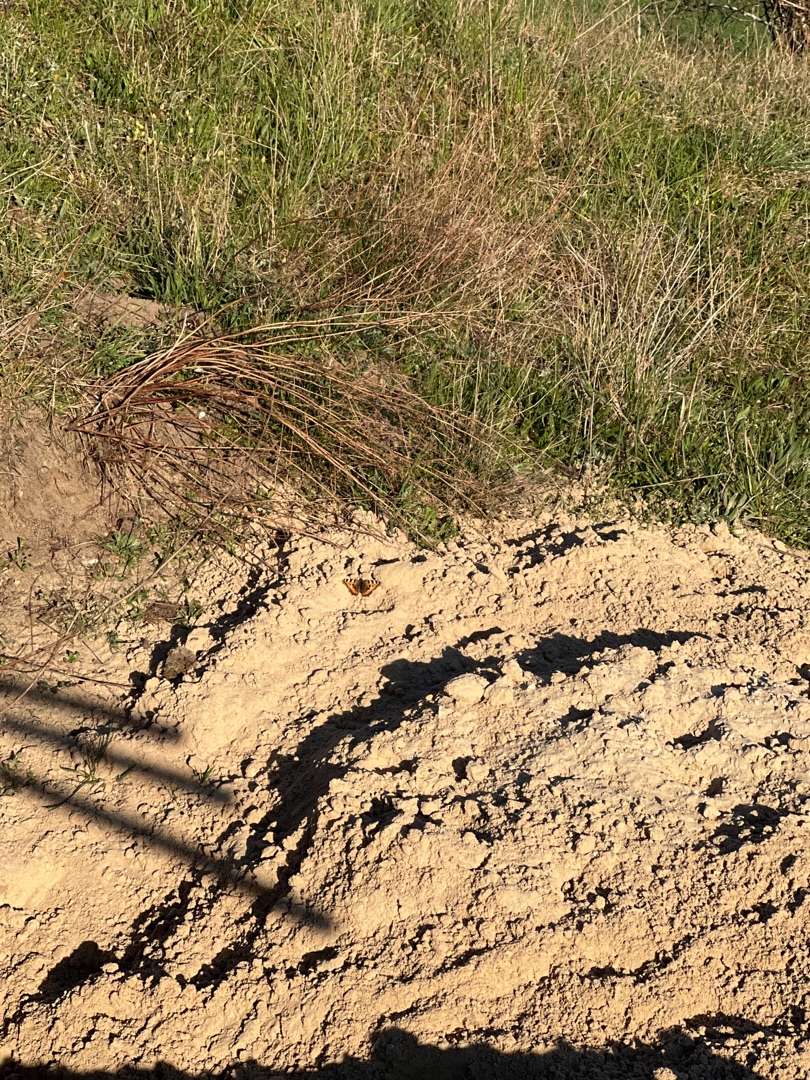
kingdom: Animalia
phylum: Arthropoda
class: Insecta
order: Lepidoptera
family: Nymphalidae
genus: Aglais
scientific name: Aglais urticae
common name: Nældens takvinge
